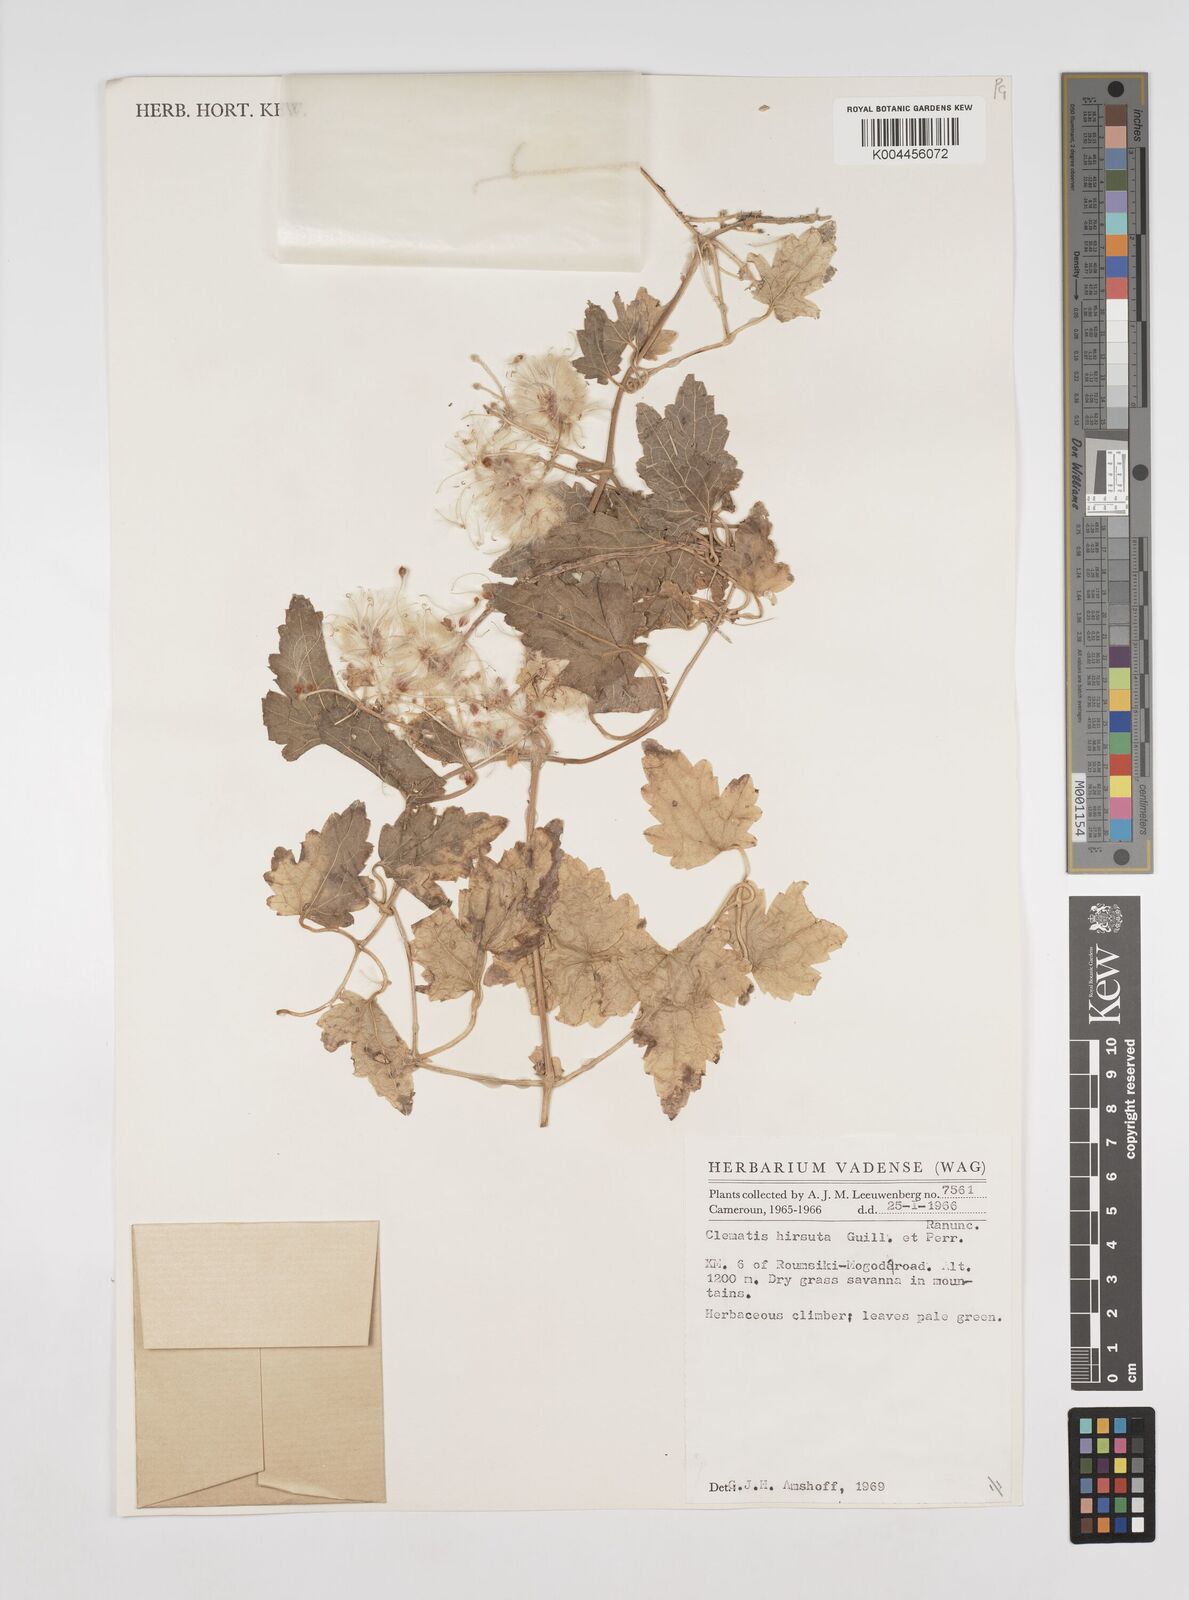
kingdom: Plantae
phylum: Tracheophyta
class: Magnoliopsida
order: Ranunculales
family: Ranunculaceae
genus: Clematis
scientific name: Clematis hirsuta
